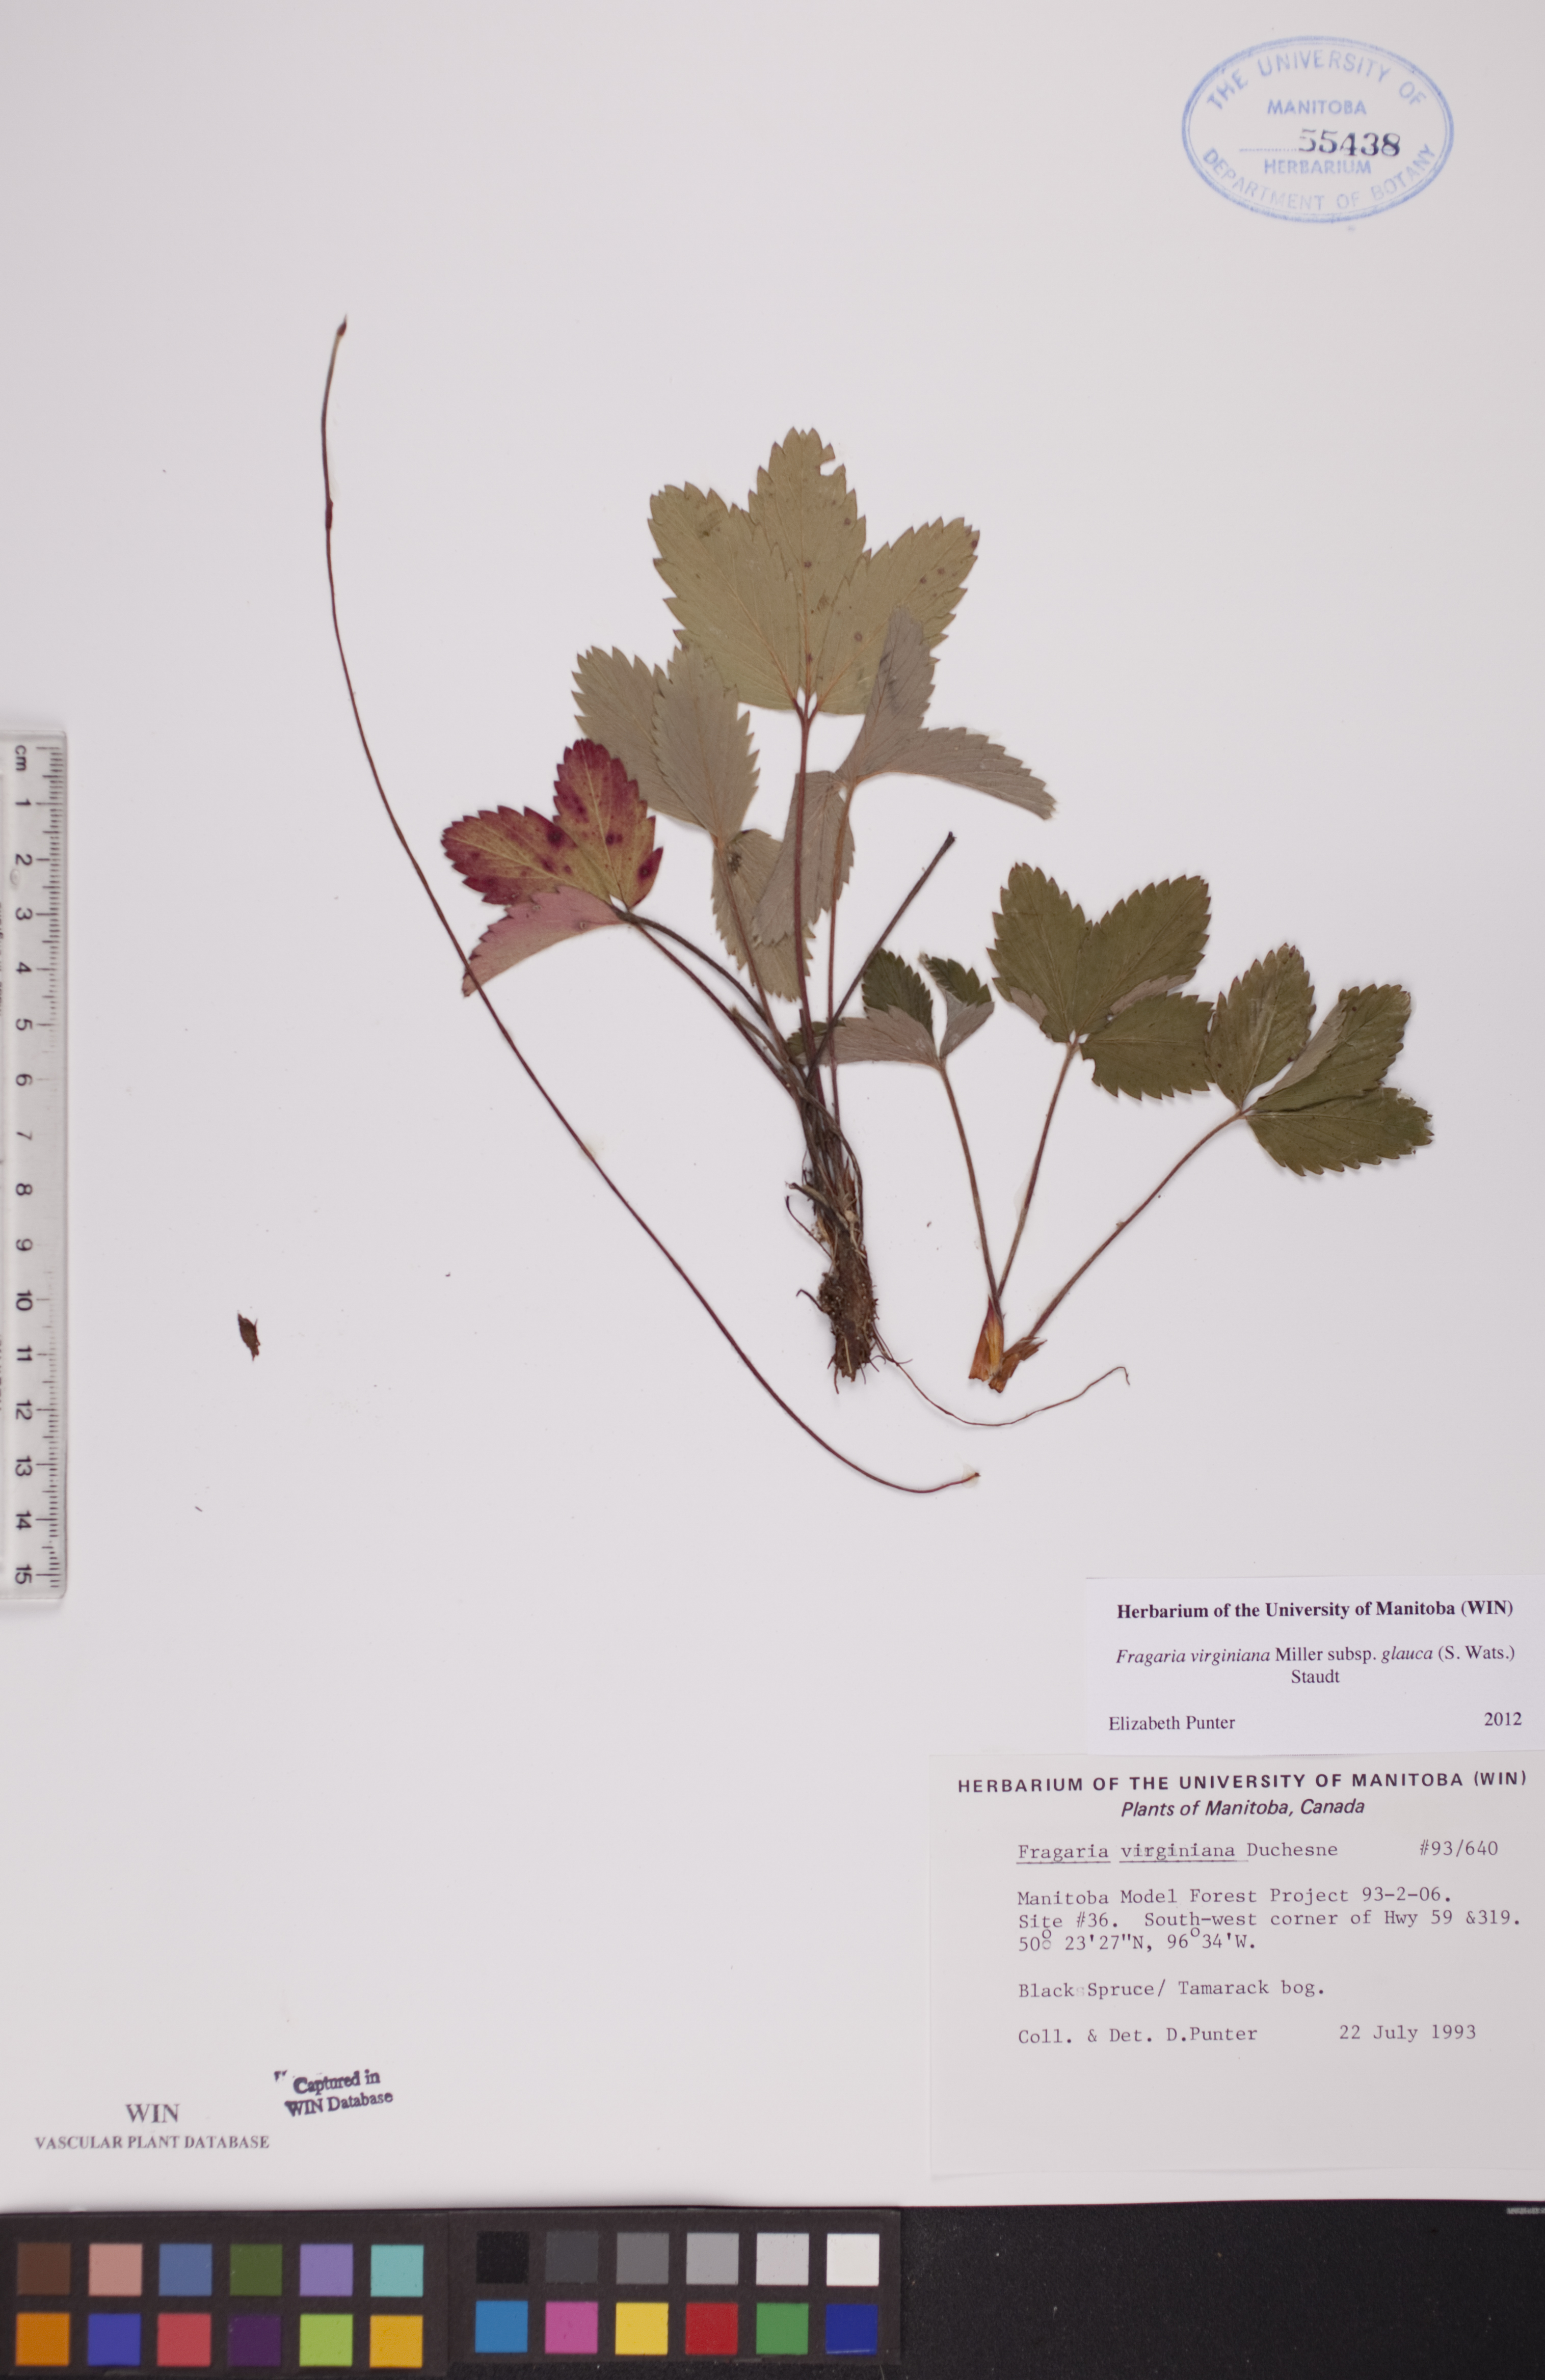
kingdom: Plantae
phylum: Tracheophyta
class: Magnoliopsida
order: Rosales
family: Rosaceae
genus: Fragaria
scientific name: Fragaria virginiana
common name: Thickleaved wild strawberry
